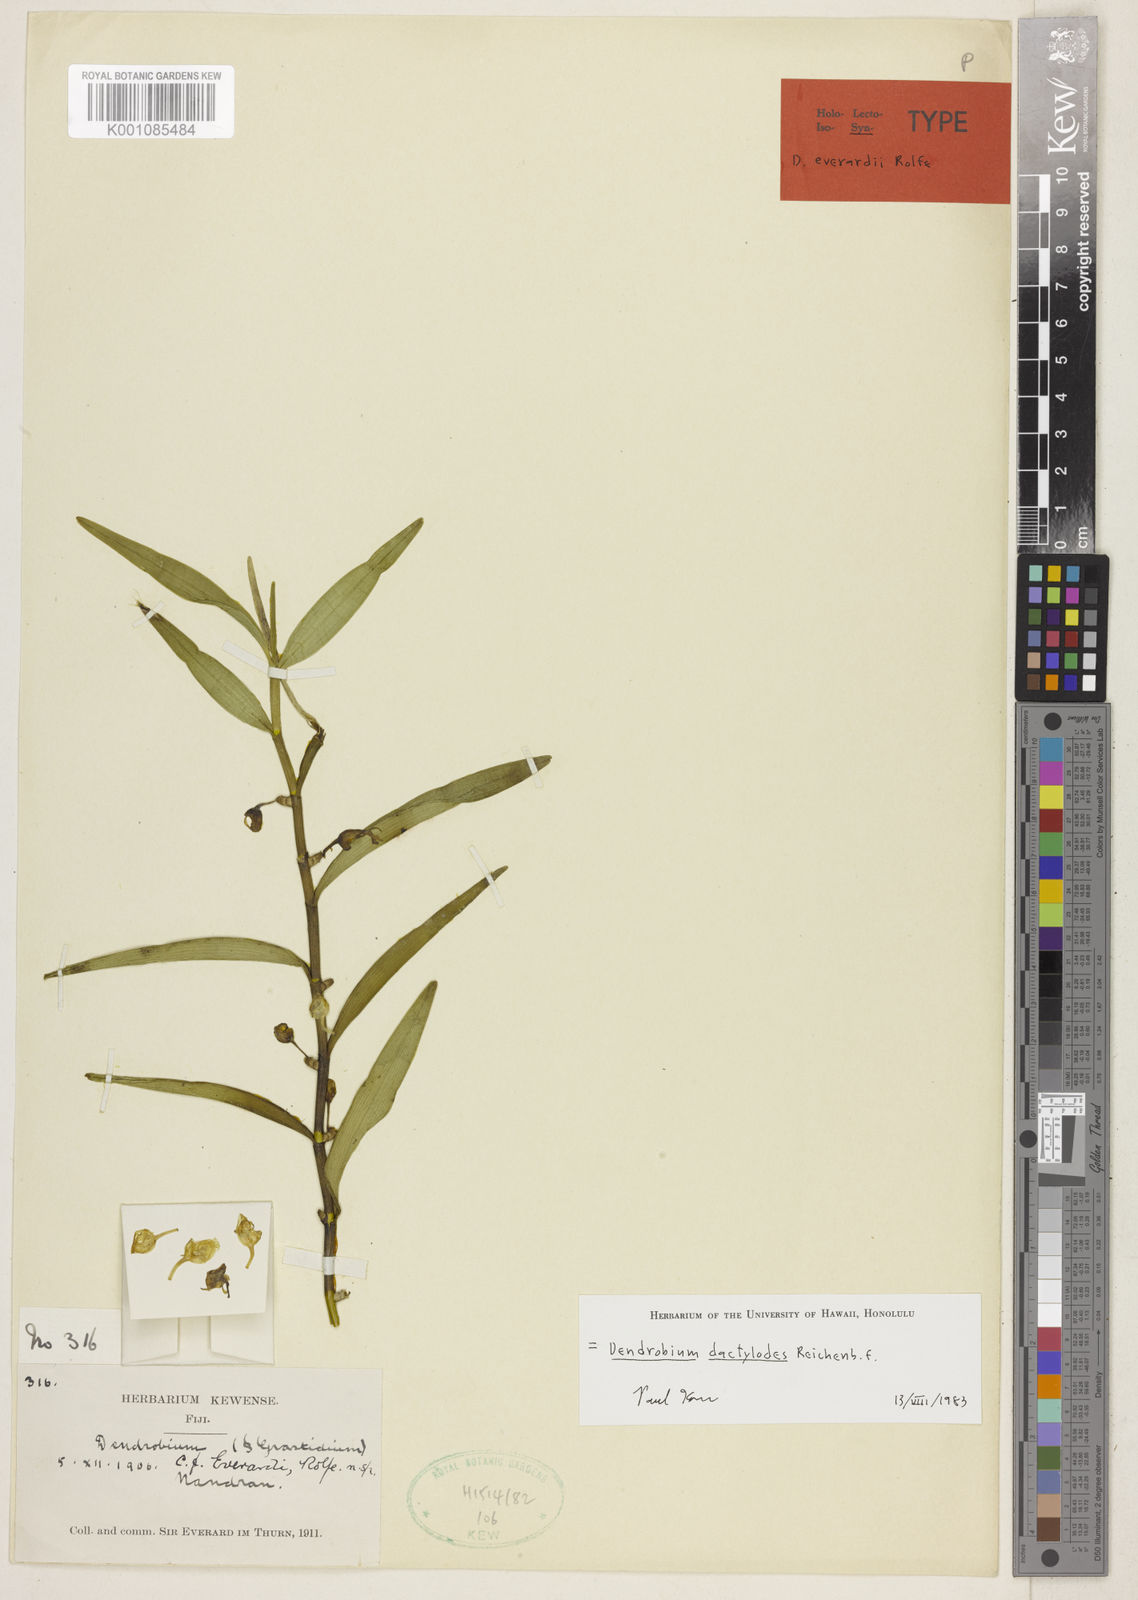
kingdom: Plantae
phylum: Tracheophyta
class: Liliopsida
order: Asparagales
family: Orchidaceae
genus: Dendrobium
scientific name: Dendrobium dactylodes
